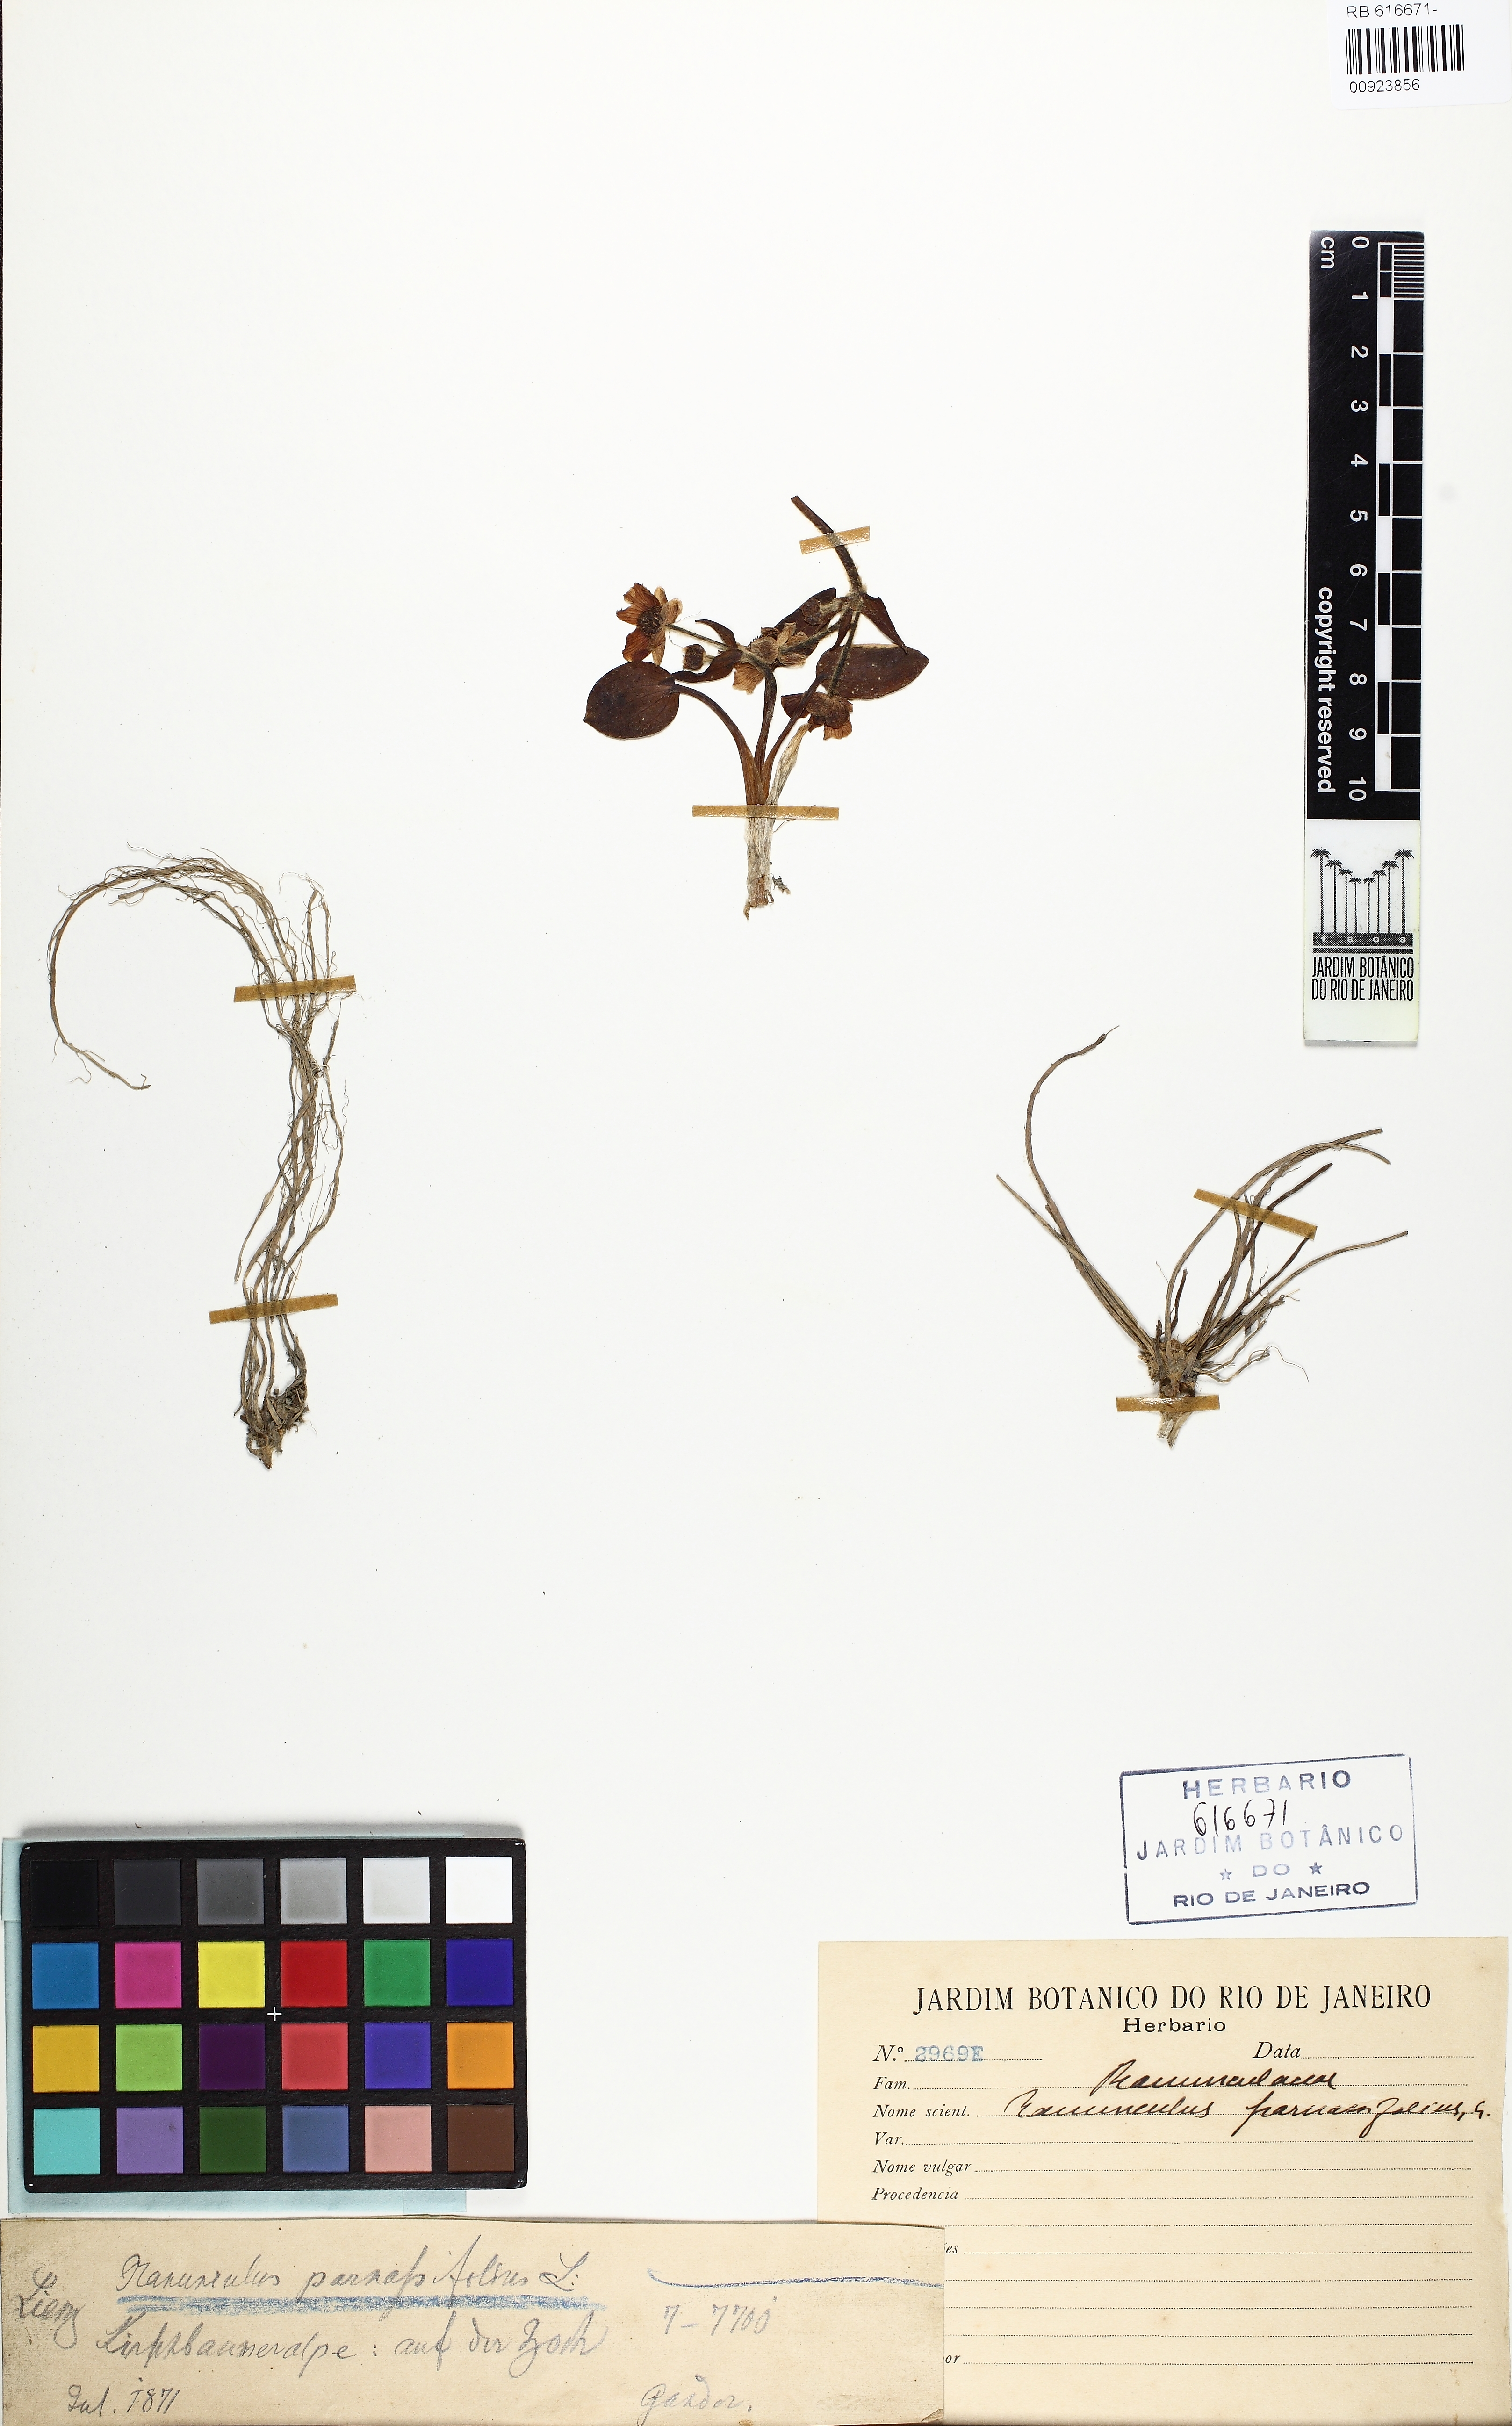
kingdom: Plantae
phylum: Tracheophyta
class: Magnoliopsida
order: Ranunculales
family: Ranunculaceae
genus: Ranunculus
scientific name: Ranunculus parnassiifolius
